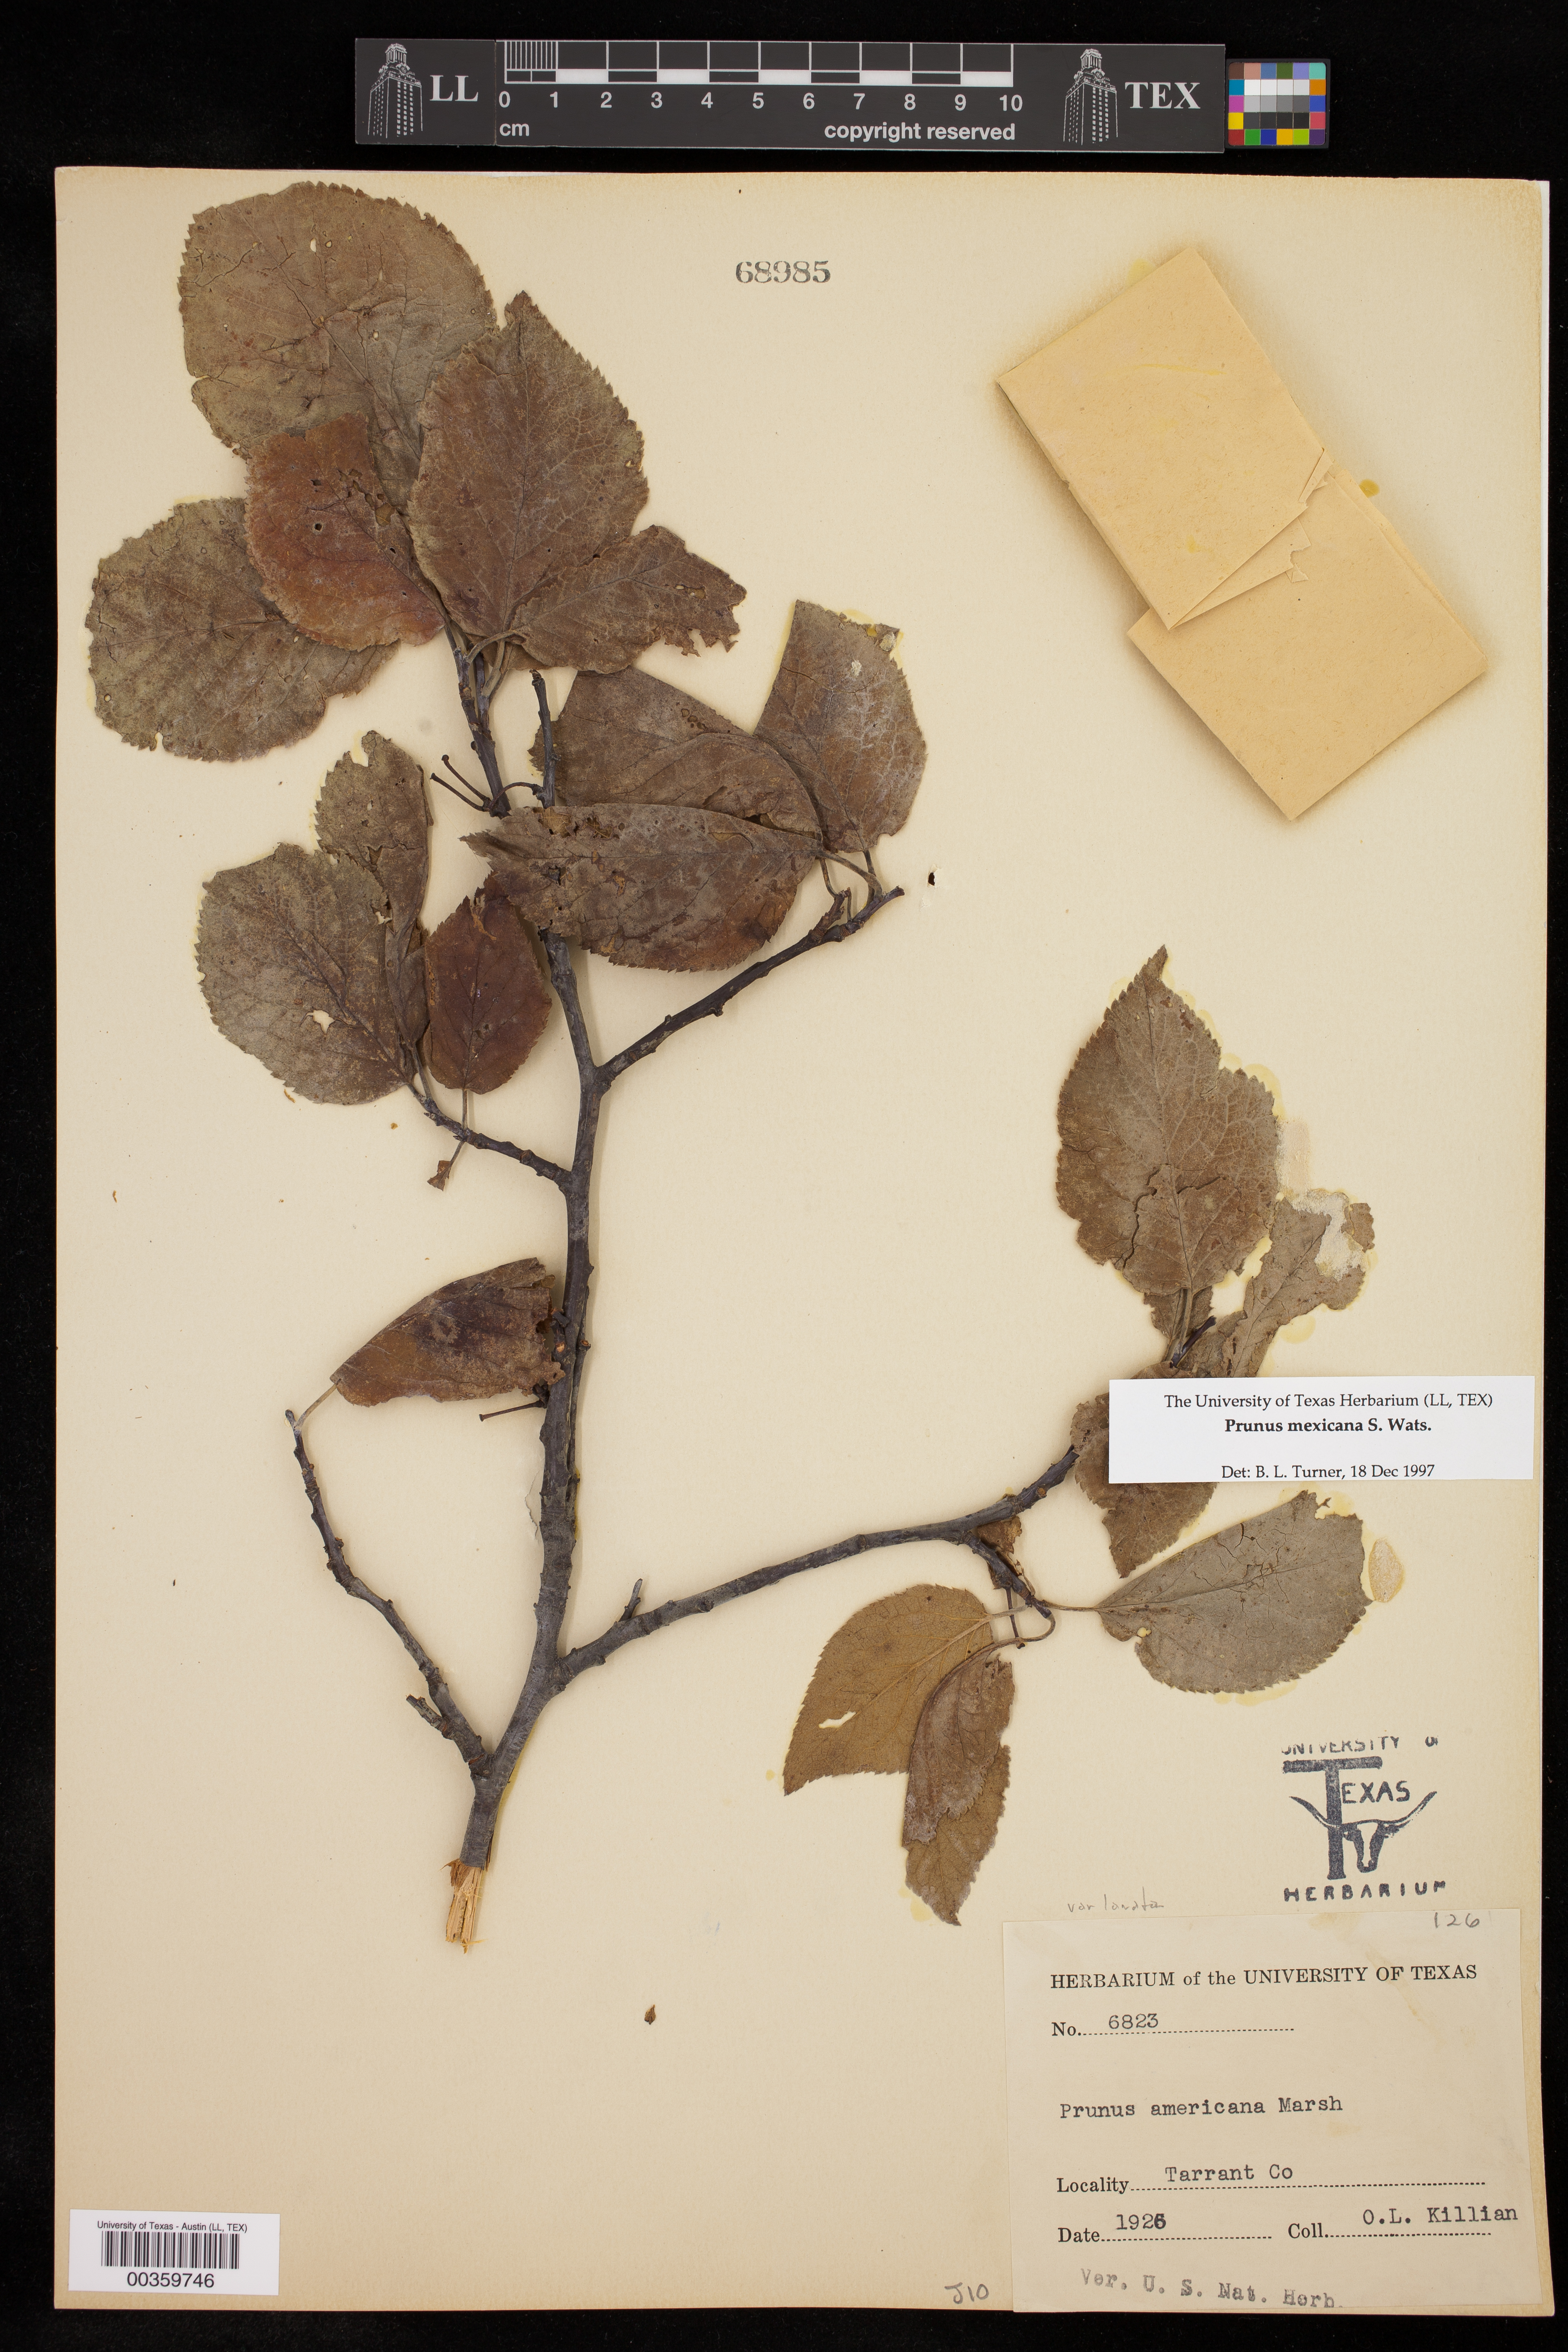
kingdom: Plantae
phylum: Tracheophyta
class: Magnoliopsida
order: Rosales
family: Rosaceae
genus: Prunus
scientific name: Prunus mexicana
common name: Mexican plum
